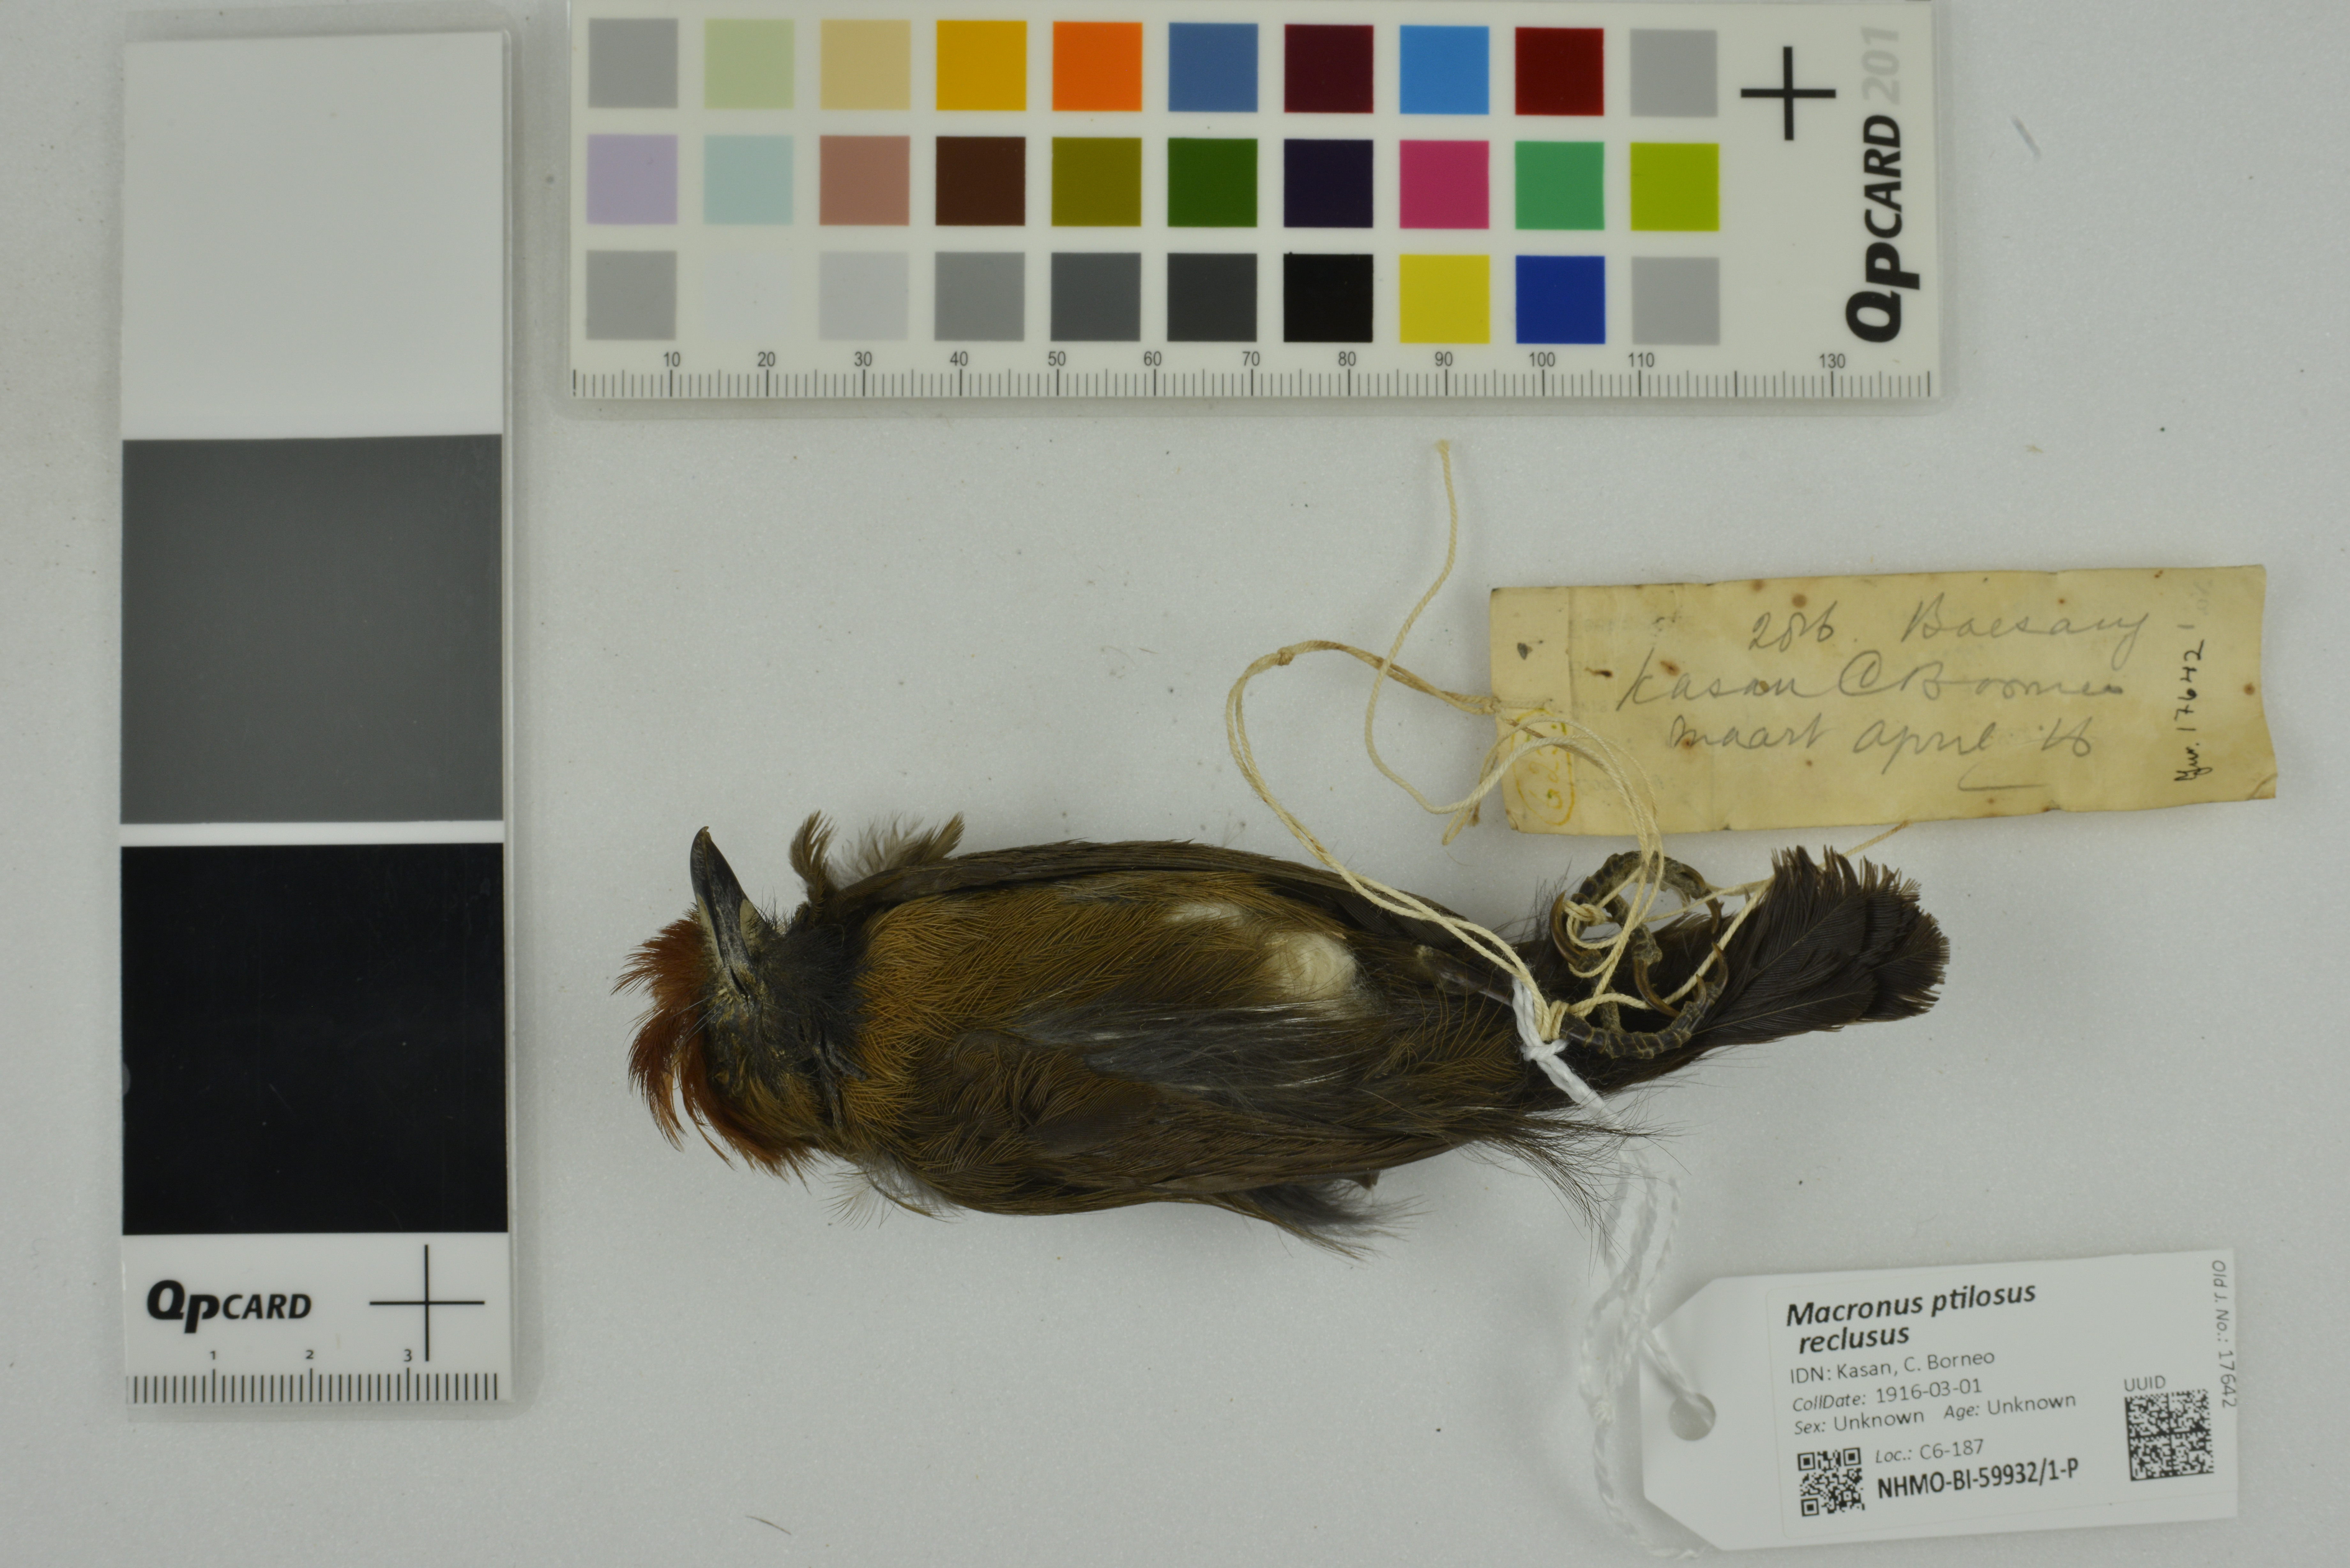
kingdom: Animalia
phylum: Chordata
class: Aves
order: Passeriformes
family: Timaliidae
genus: Macronus
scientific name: Macronus ptilosus
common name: Fluffy-backed tit-babbler
